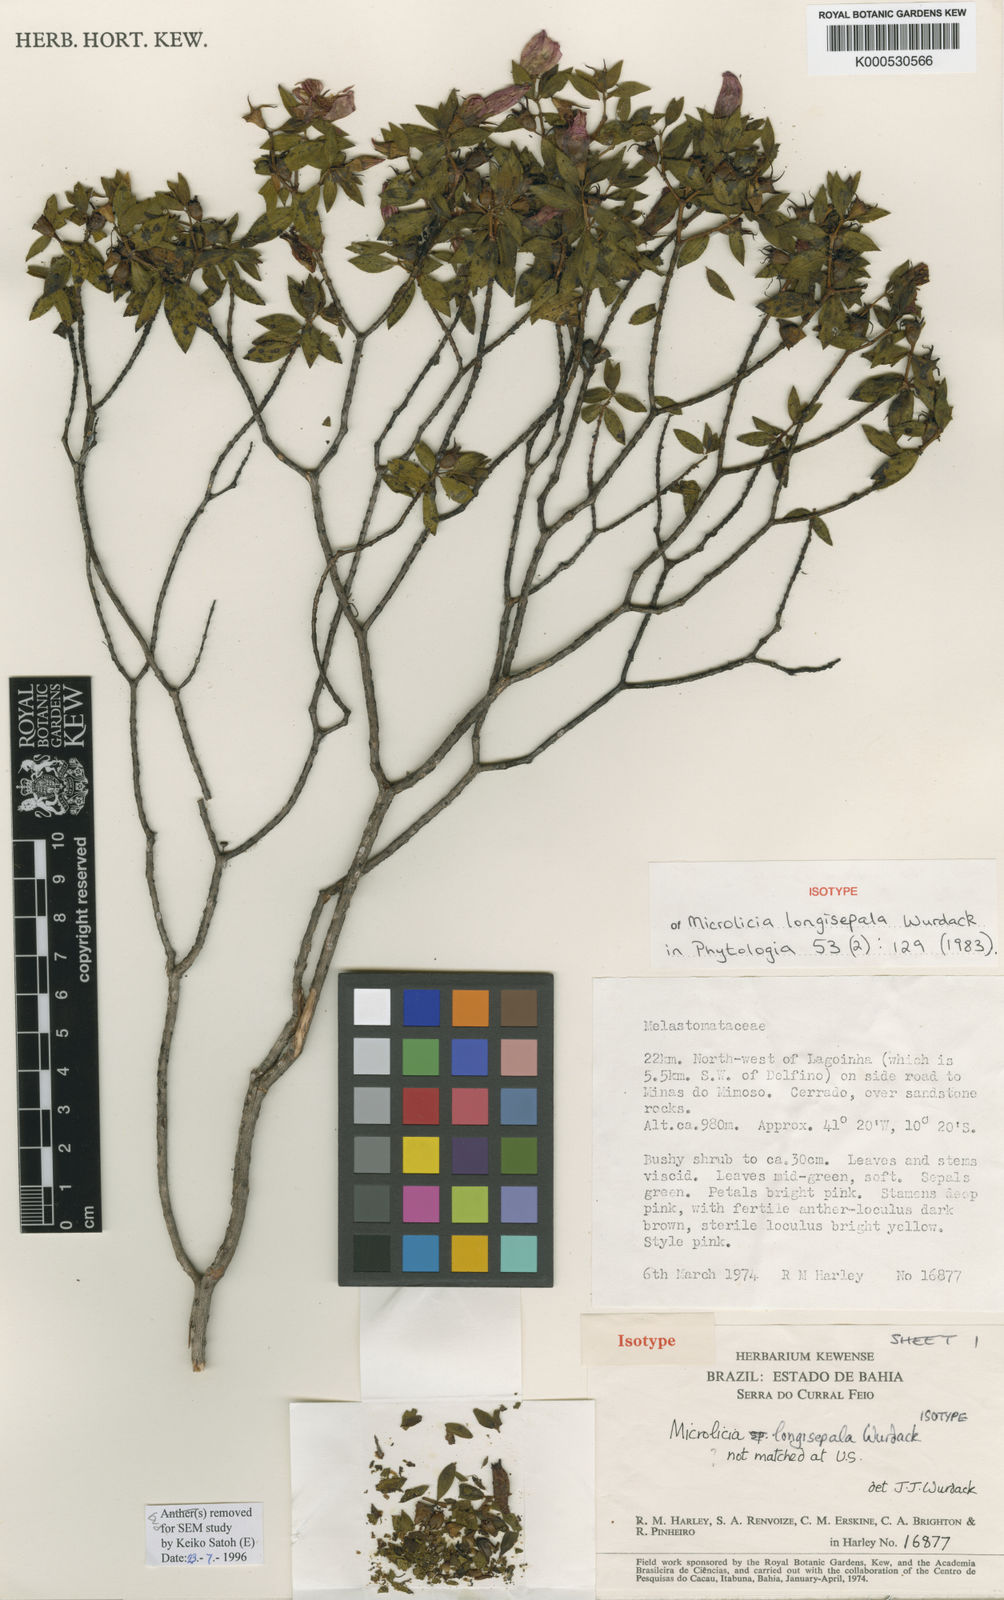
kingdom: Plantae
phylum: Tracheophyta
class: Magnoliopsida
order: Myrtales
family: Melastomataceae
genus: Microlicia
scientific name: Microlicia longisepala
